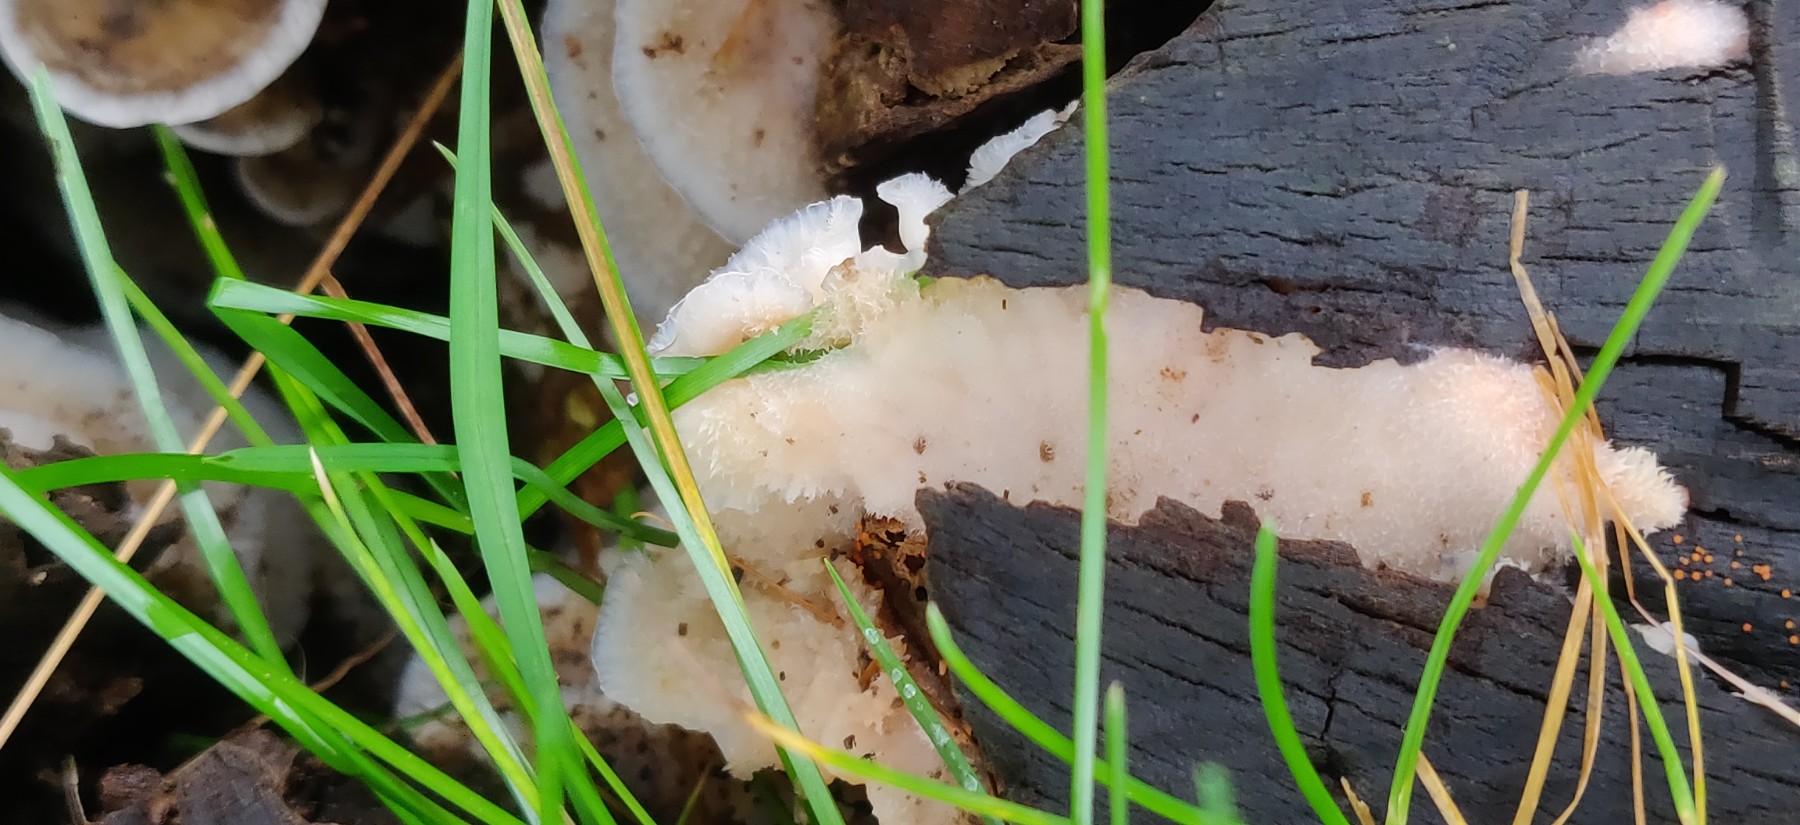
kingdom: Fungi
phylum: Basidiomycota
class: Agaricomycetes
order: Polyporales
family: Meruliaceae
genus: Phlebia
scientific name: Phlebia tremellosa
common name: bævrende åresvamp
